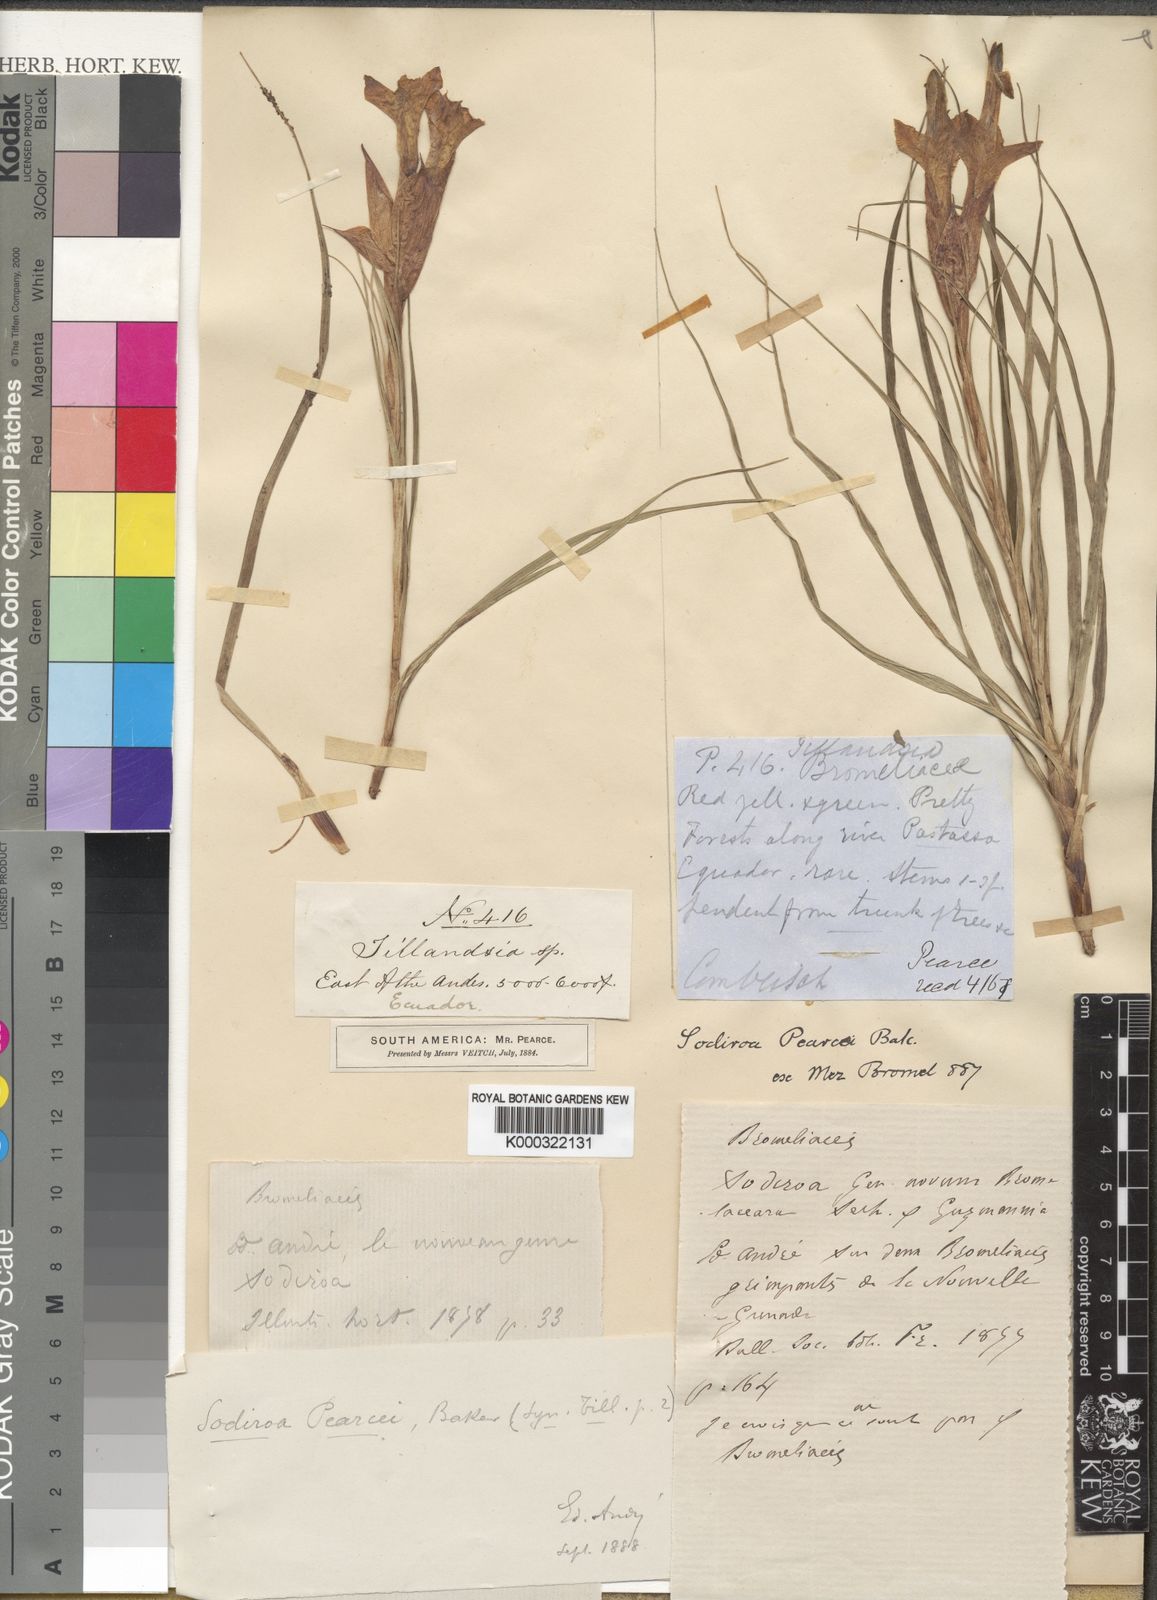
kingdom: Plantae
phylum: Tracheophyta
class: Liliopsida
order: Poales
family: Bromeliaceae
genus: Guzmania
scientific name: Guzmania pearcei
